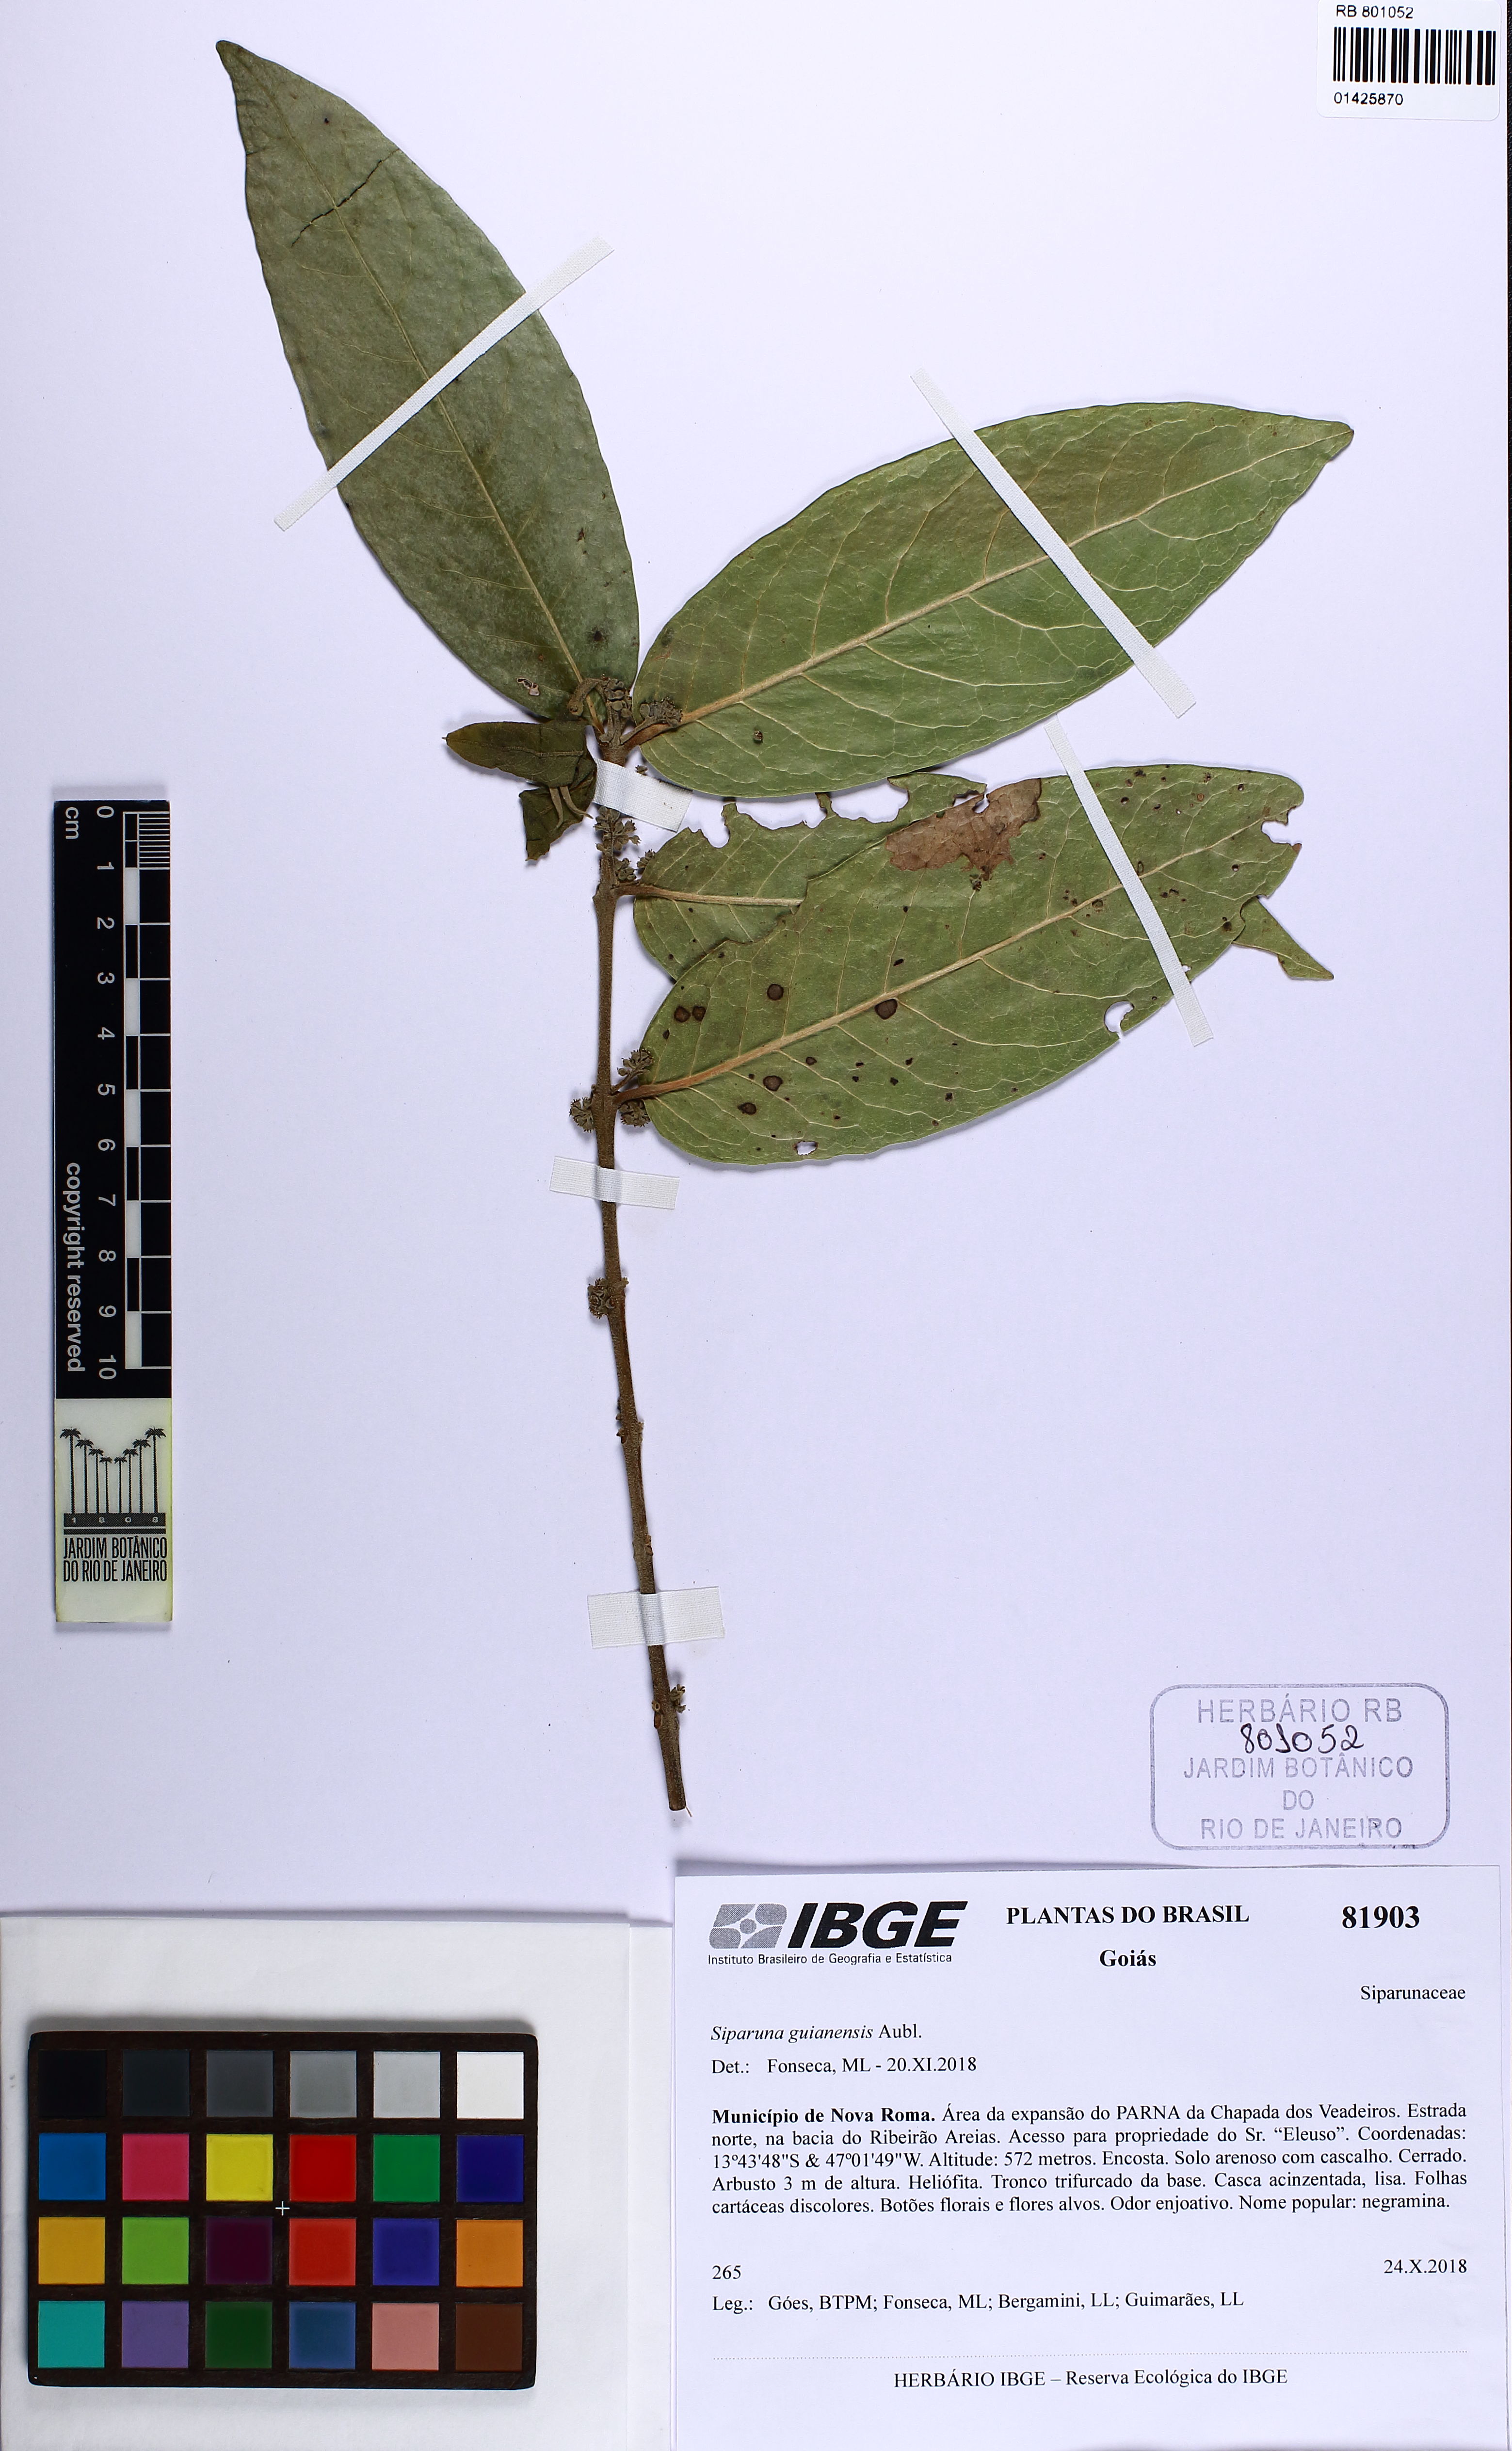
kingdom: Plantae
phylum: Tracheophyta
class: Magnoliopsida
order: Laurales
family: Siparunaceae
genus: Siparuna
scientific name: Siparuna guianensis
